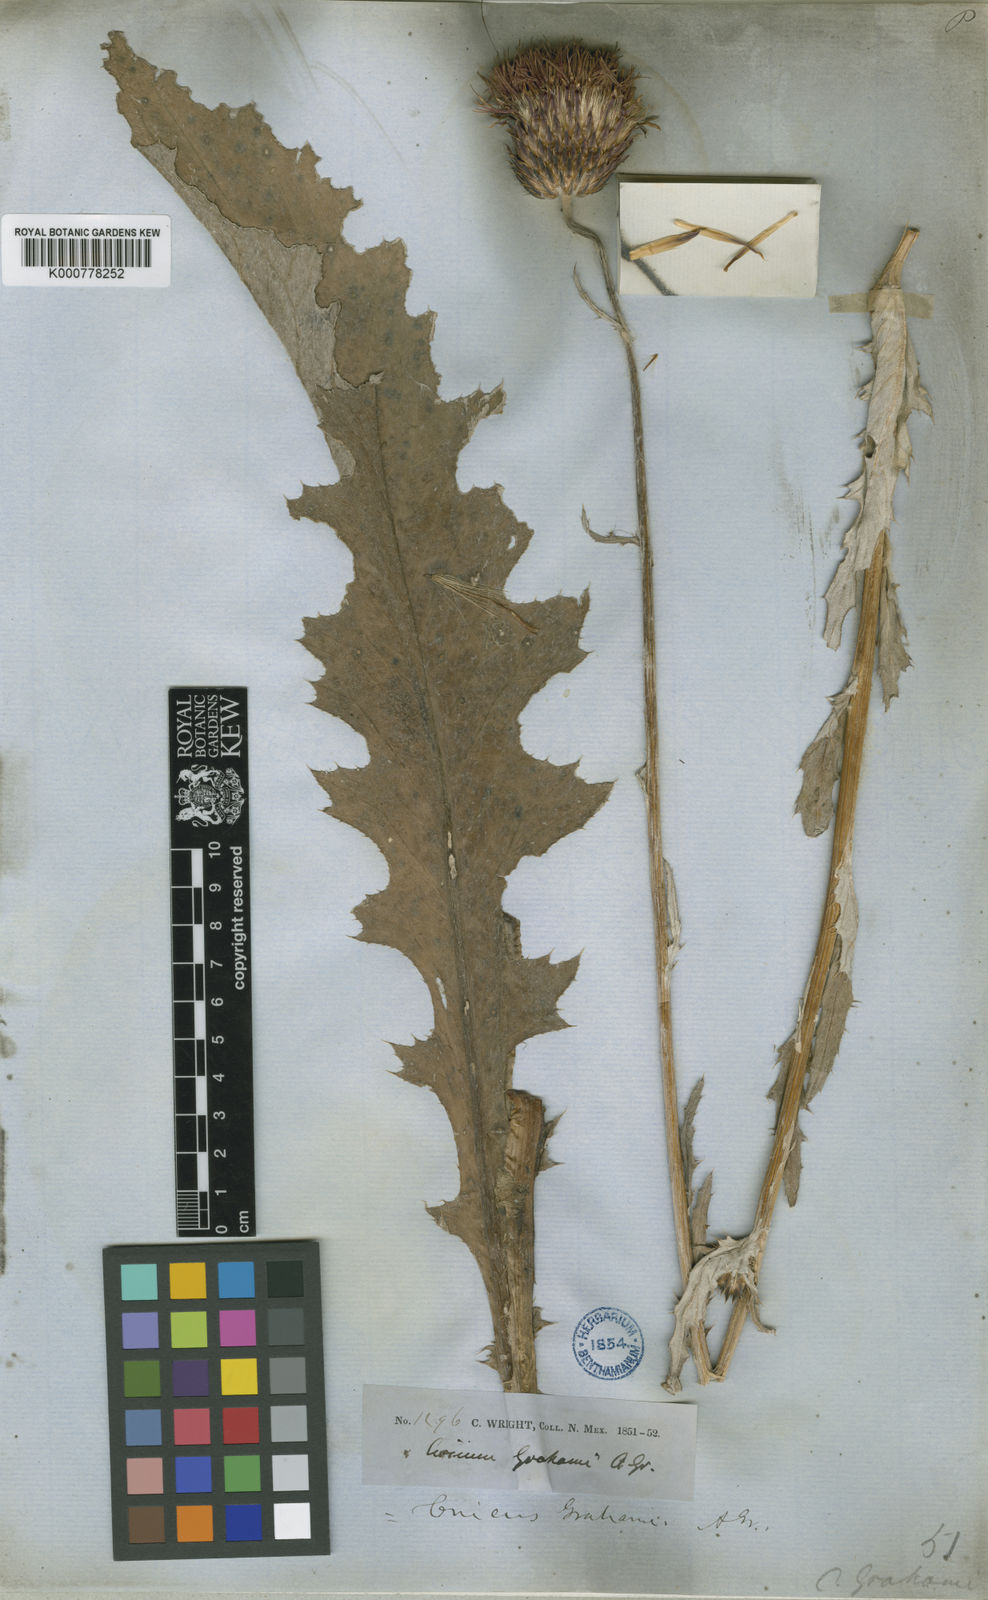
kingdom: Plantae
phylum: Tracheophyta
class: Magnoliopsida
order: Asterales
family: Asteraceae
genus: Cirsium
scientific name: Cirsium grahamii
